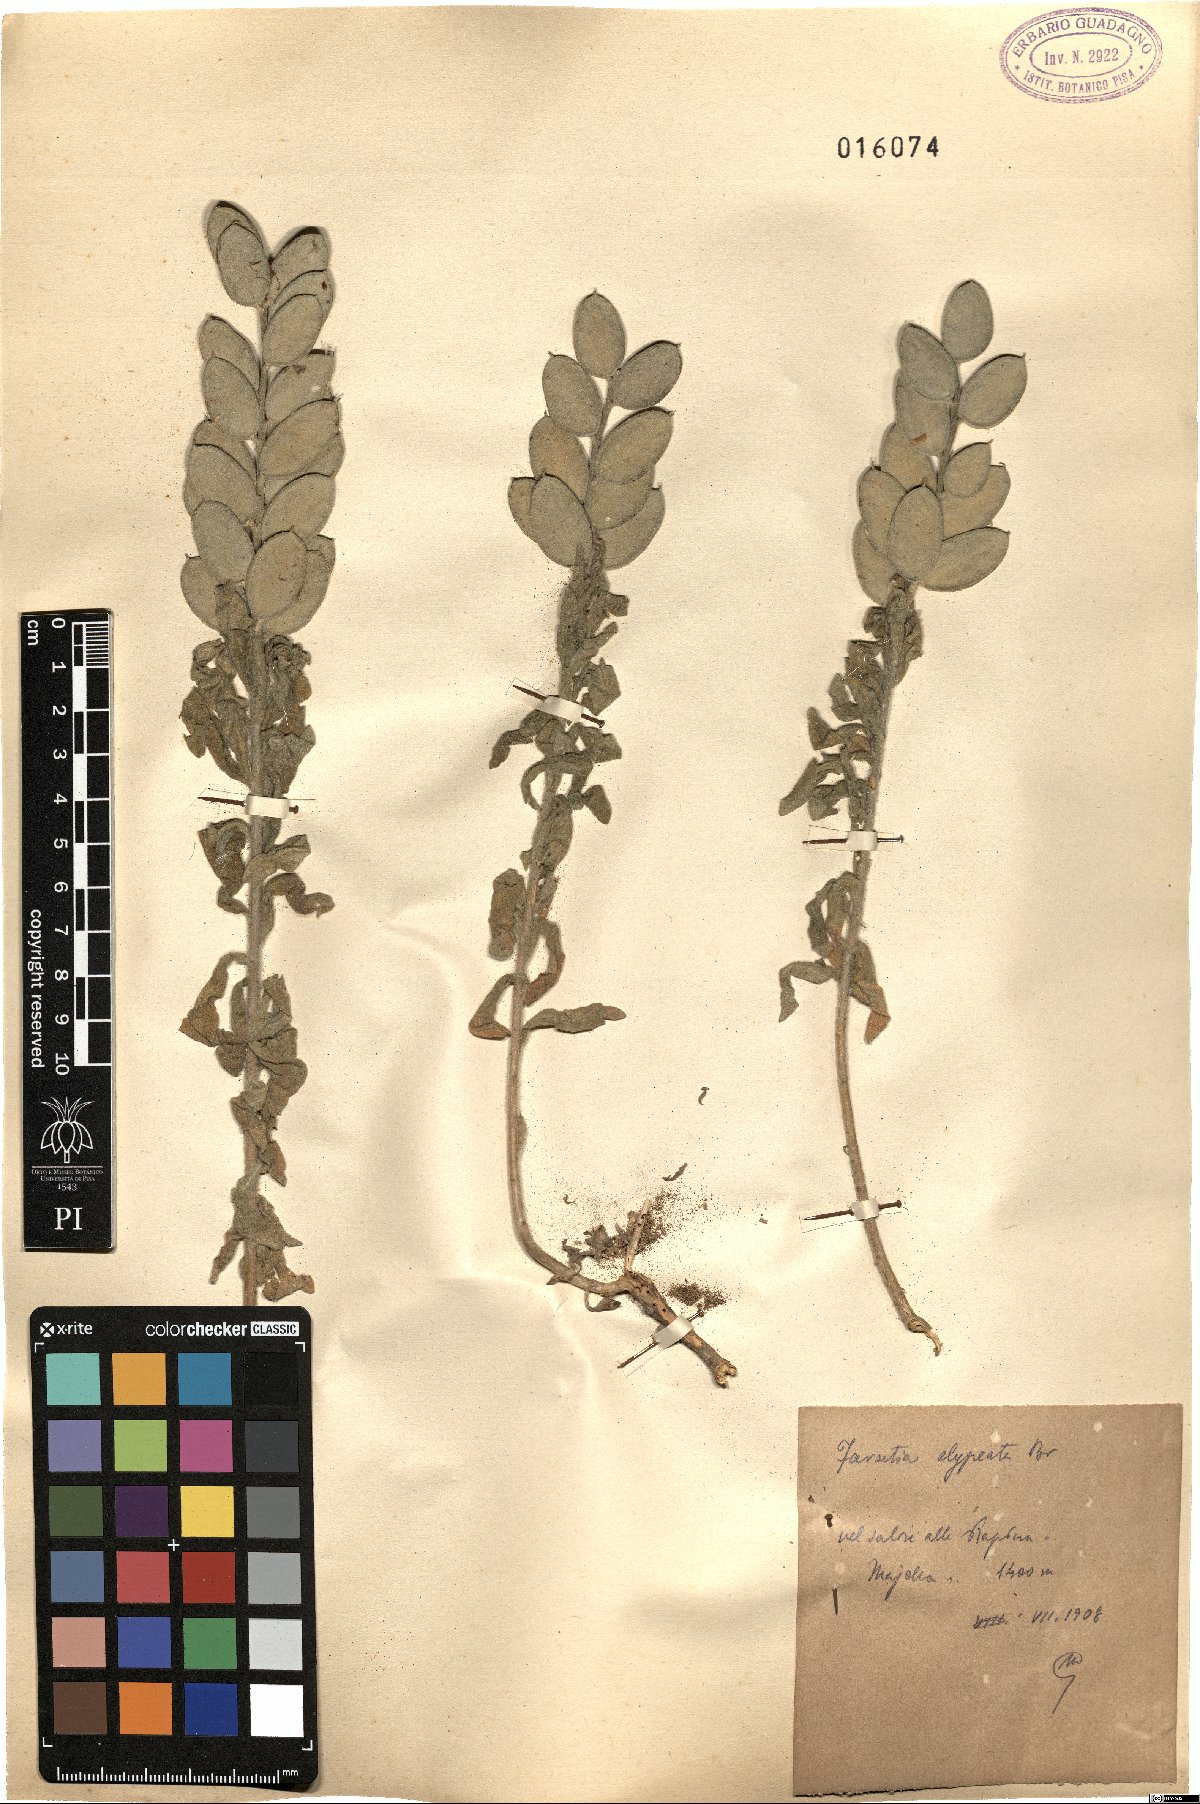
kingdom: Plantae
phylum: Tracheophyta
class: Magnoliopsida
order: Brassicales
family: Brassicaceae
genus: Fibigia
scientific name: Fibigia clypeata
